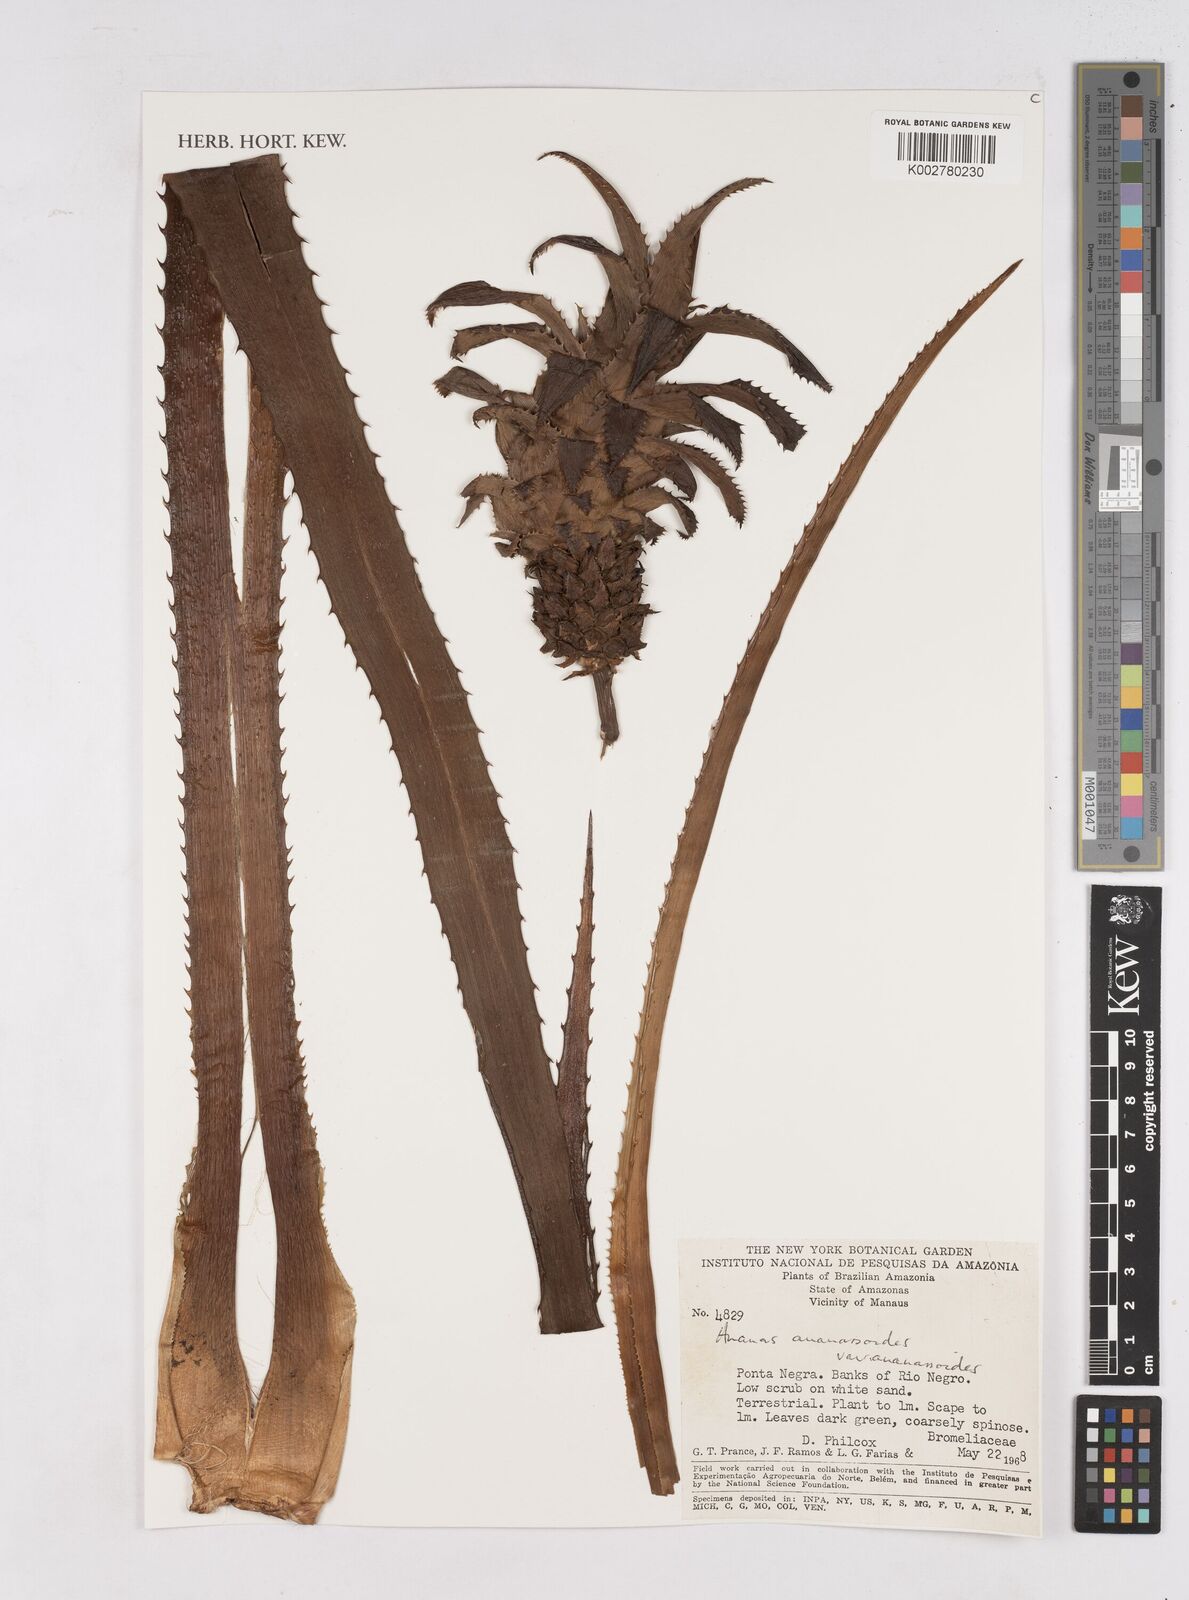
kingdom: Plantae
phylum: Tracheophyta
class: Liliopsida
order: Poales
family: Bromeliaceae
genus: Ananas
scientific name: Ananas comosus
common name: Pineapple
